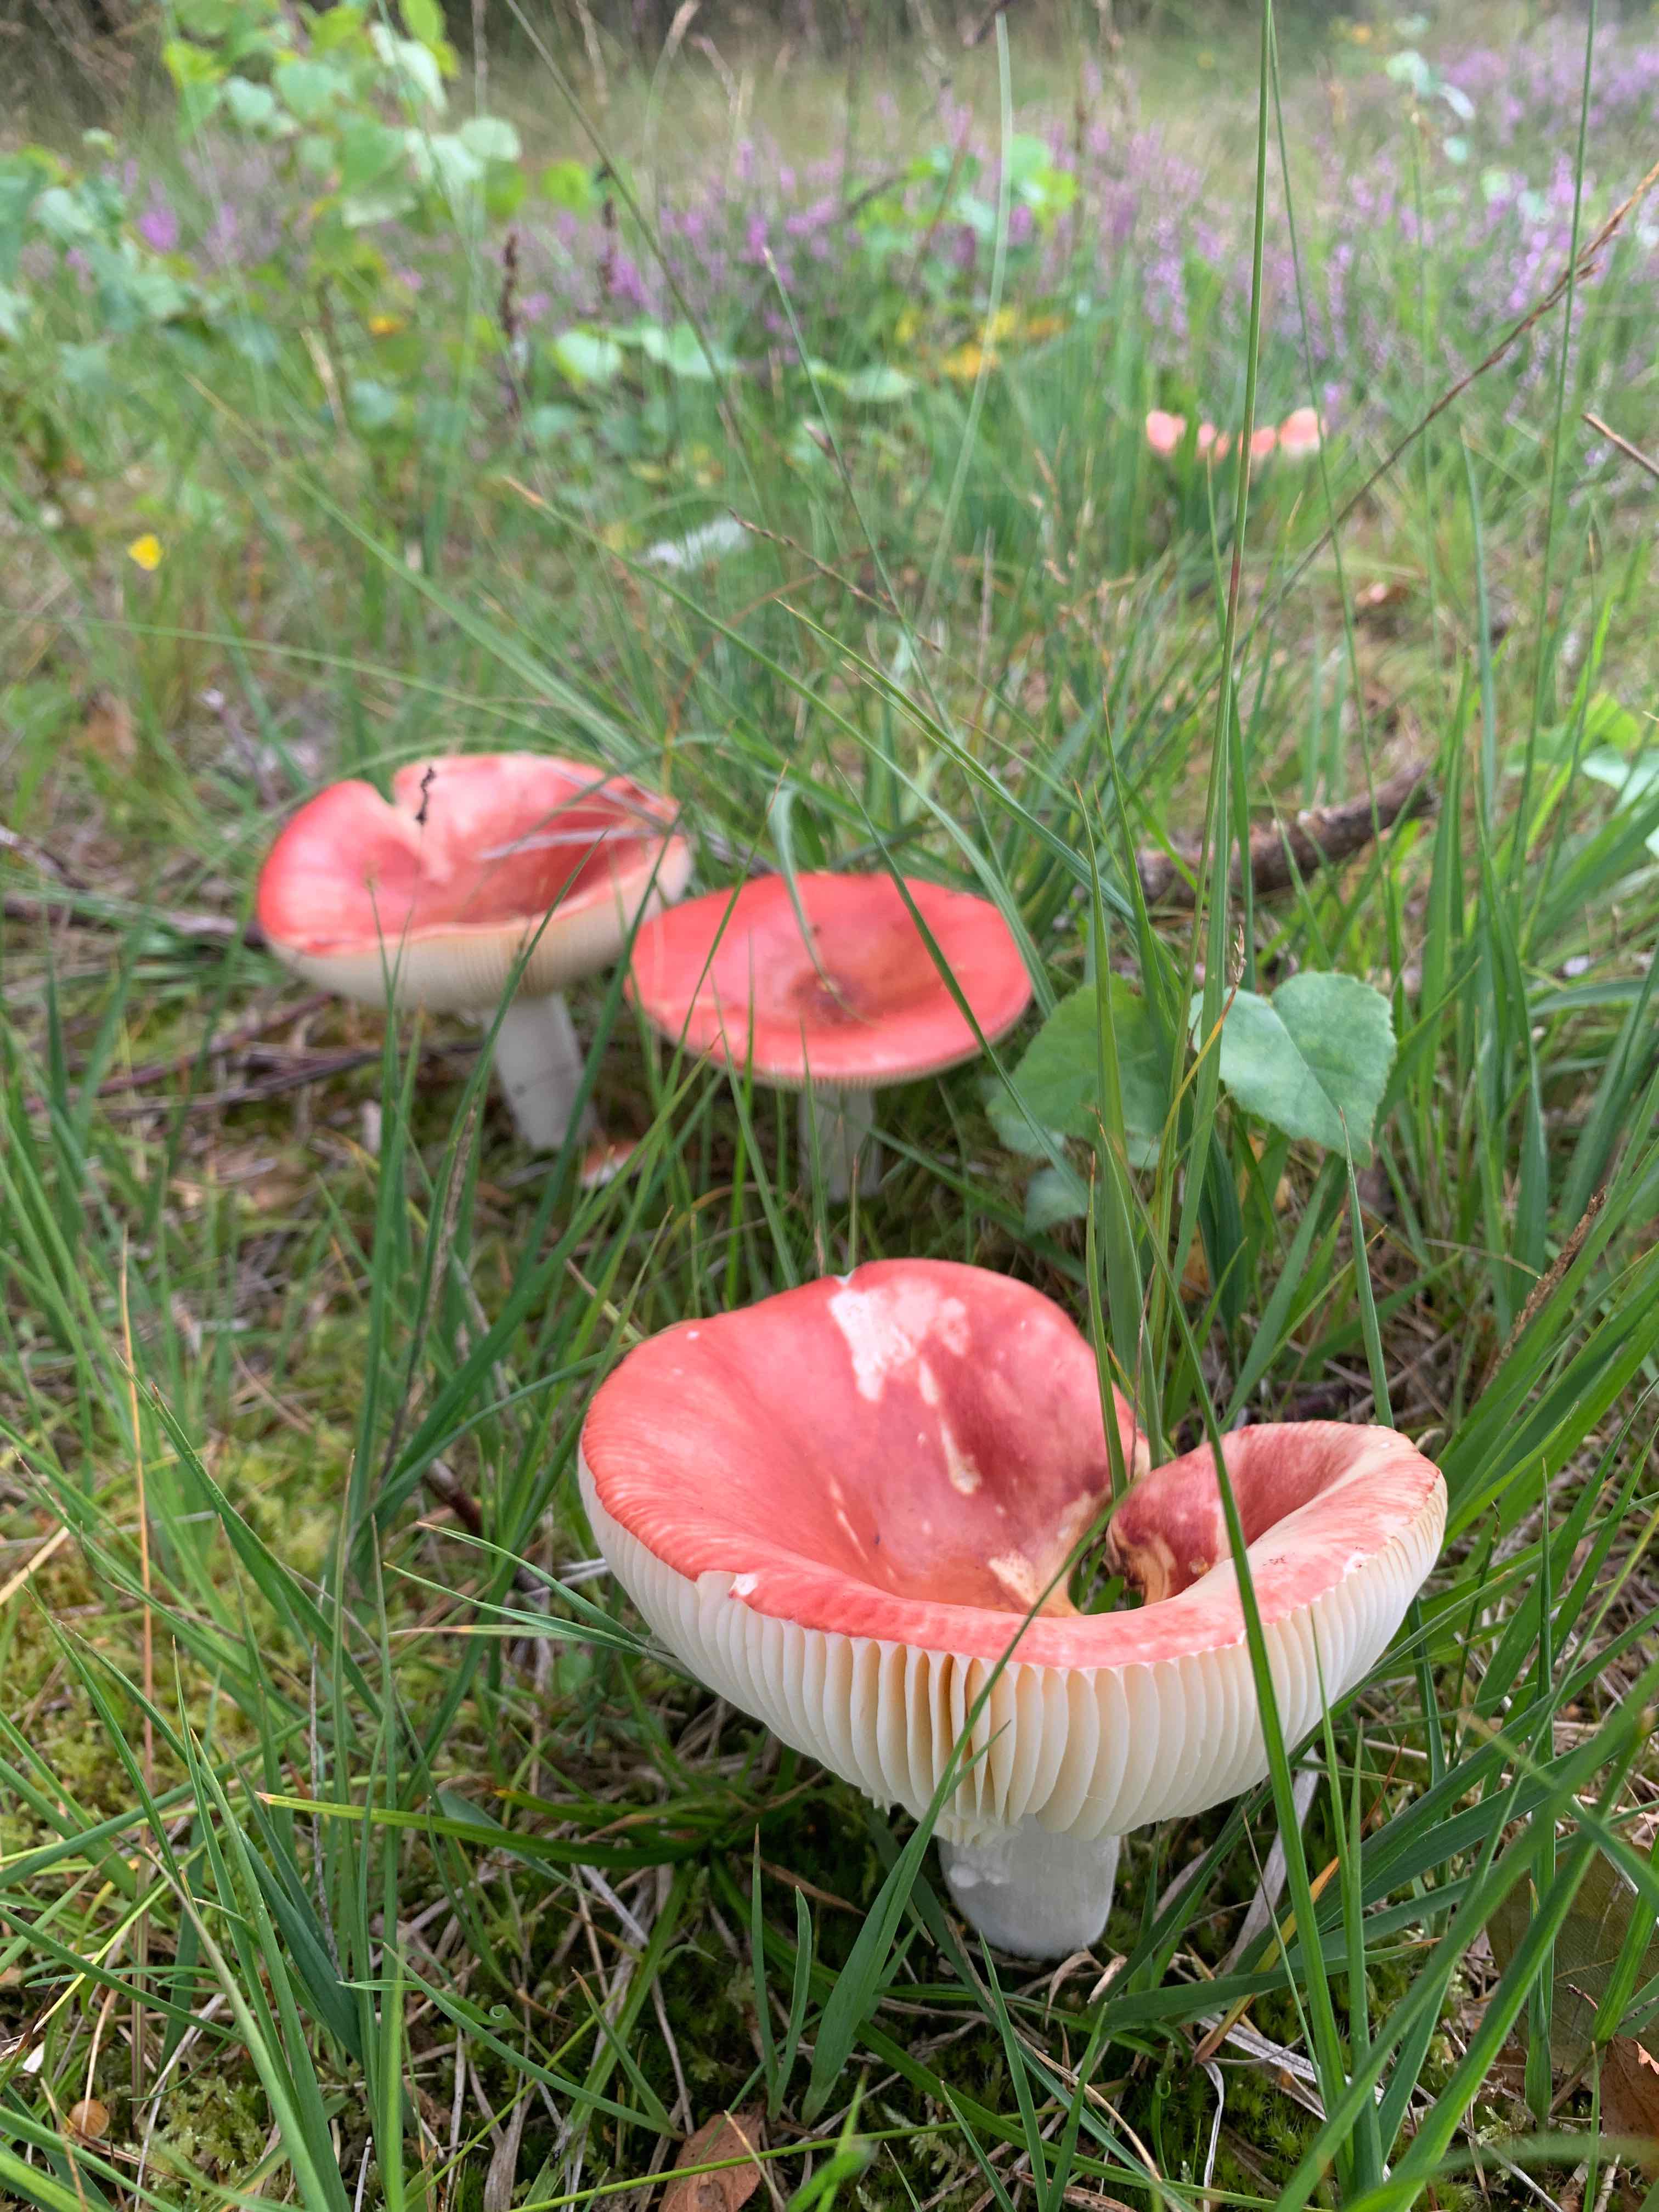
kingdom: Fungi
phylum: Basidiomycota
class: Agaricomycetes
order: Russulales
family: Russulaceae
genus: Russula
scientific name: Russula paludosa
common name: prægtig skørhat
